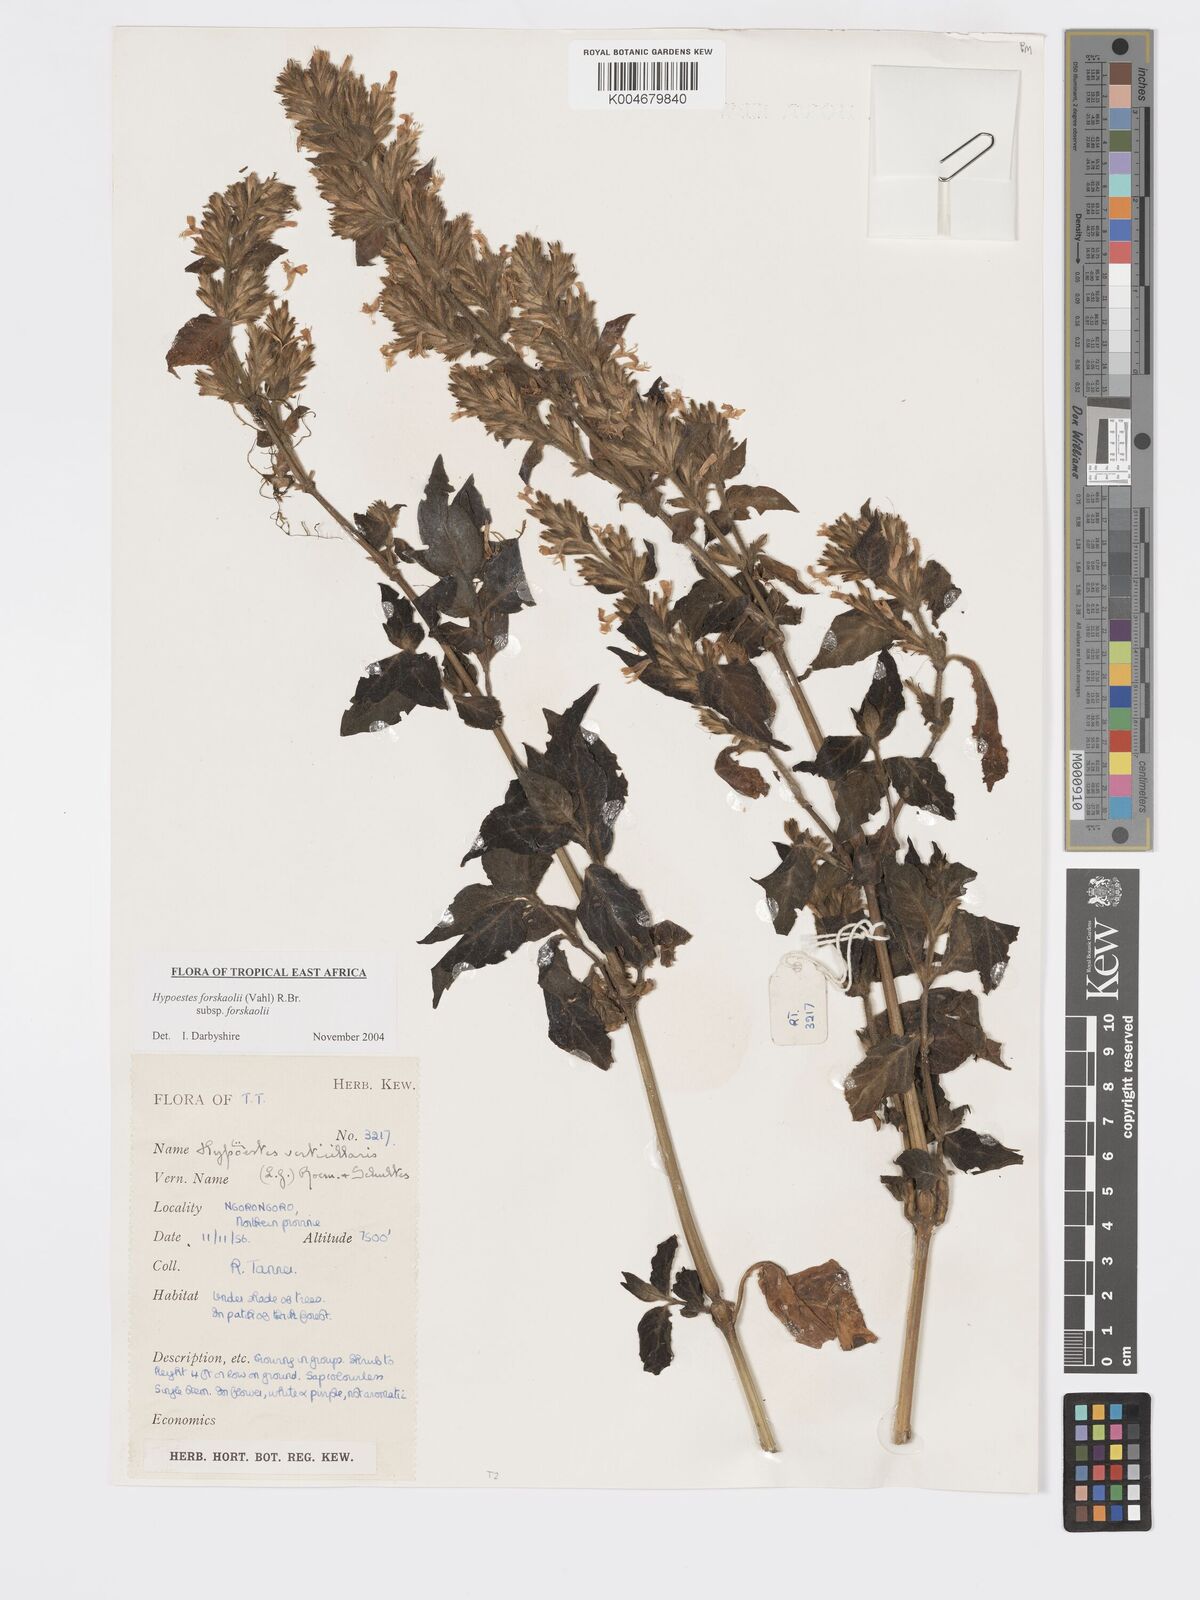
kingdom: Plantae
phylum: Tracheophyta
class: Magnoliopsida
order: Lamiales
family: Acanthaceae
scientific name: Acanthaceae
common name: Acanthaceae
